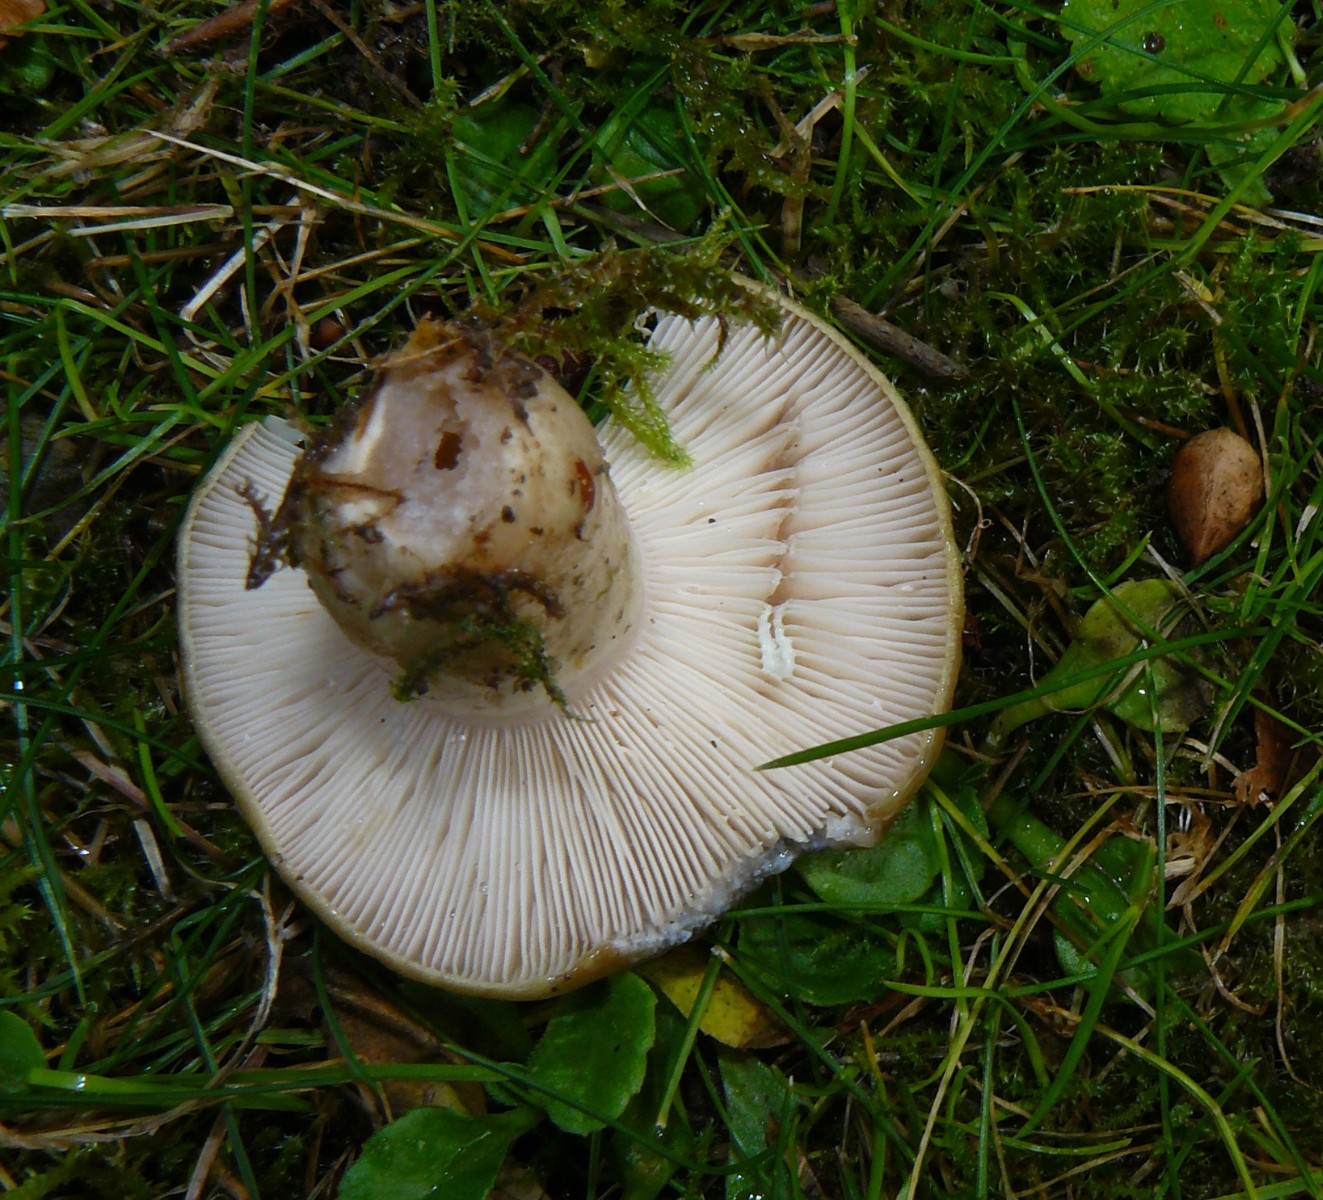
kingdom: Fungi
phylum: Basidiomycota
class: Agaricomycetes
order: Russulales
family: Russulaceae
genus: Lactarius
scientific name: Lactarius blennius
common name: dråbeplettet mælkehat
